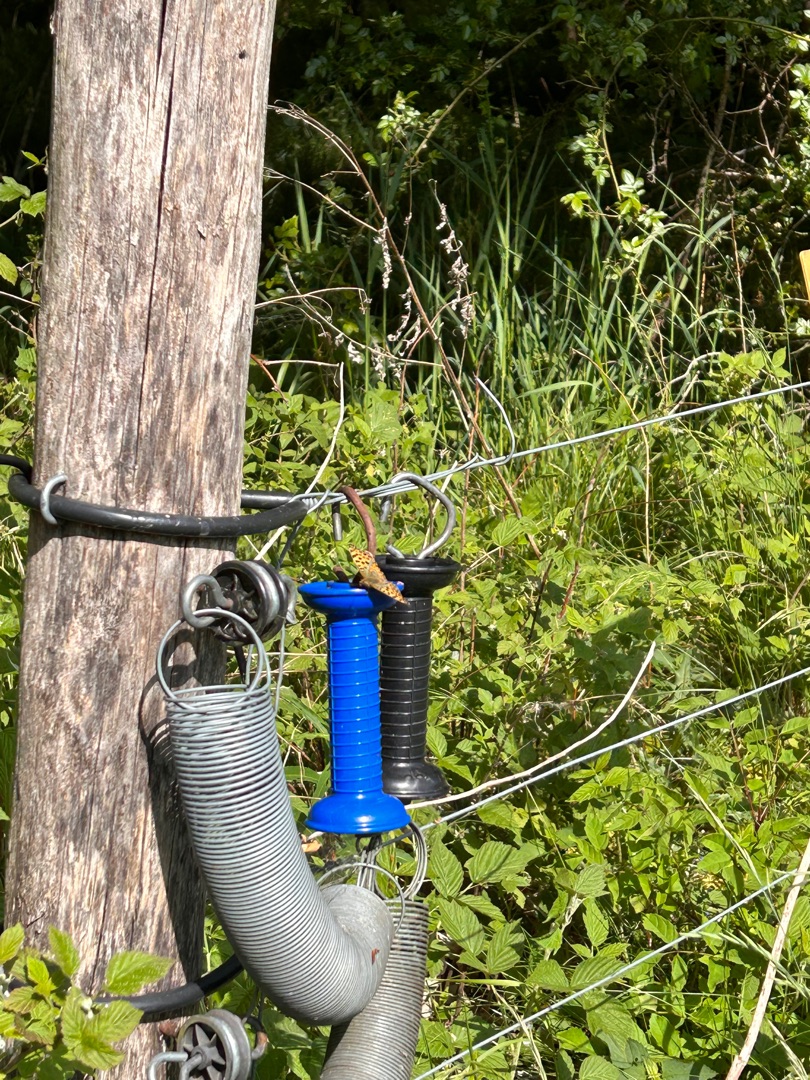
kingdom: Animalia
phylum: Arthropoda
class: Insecta
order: Lepidoptera
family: Nymphalidae
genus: Issoria
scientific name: Issoria lathonia
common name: Storplettet perlemorsommerfugl
